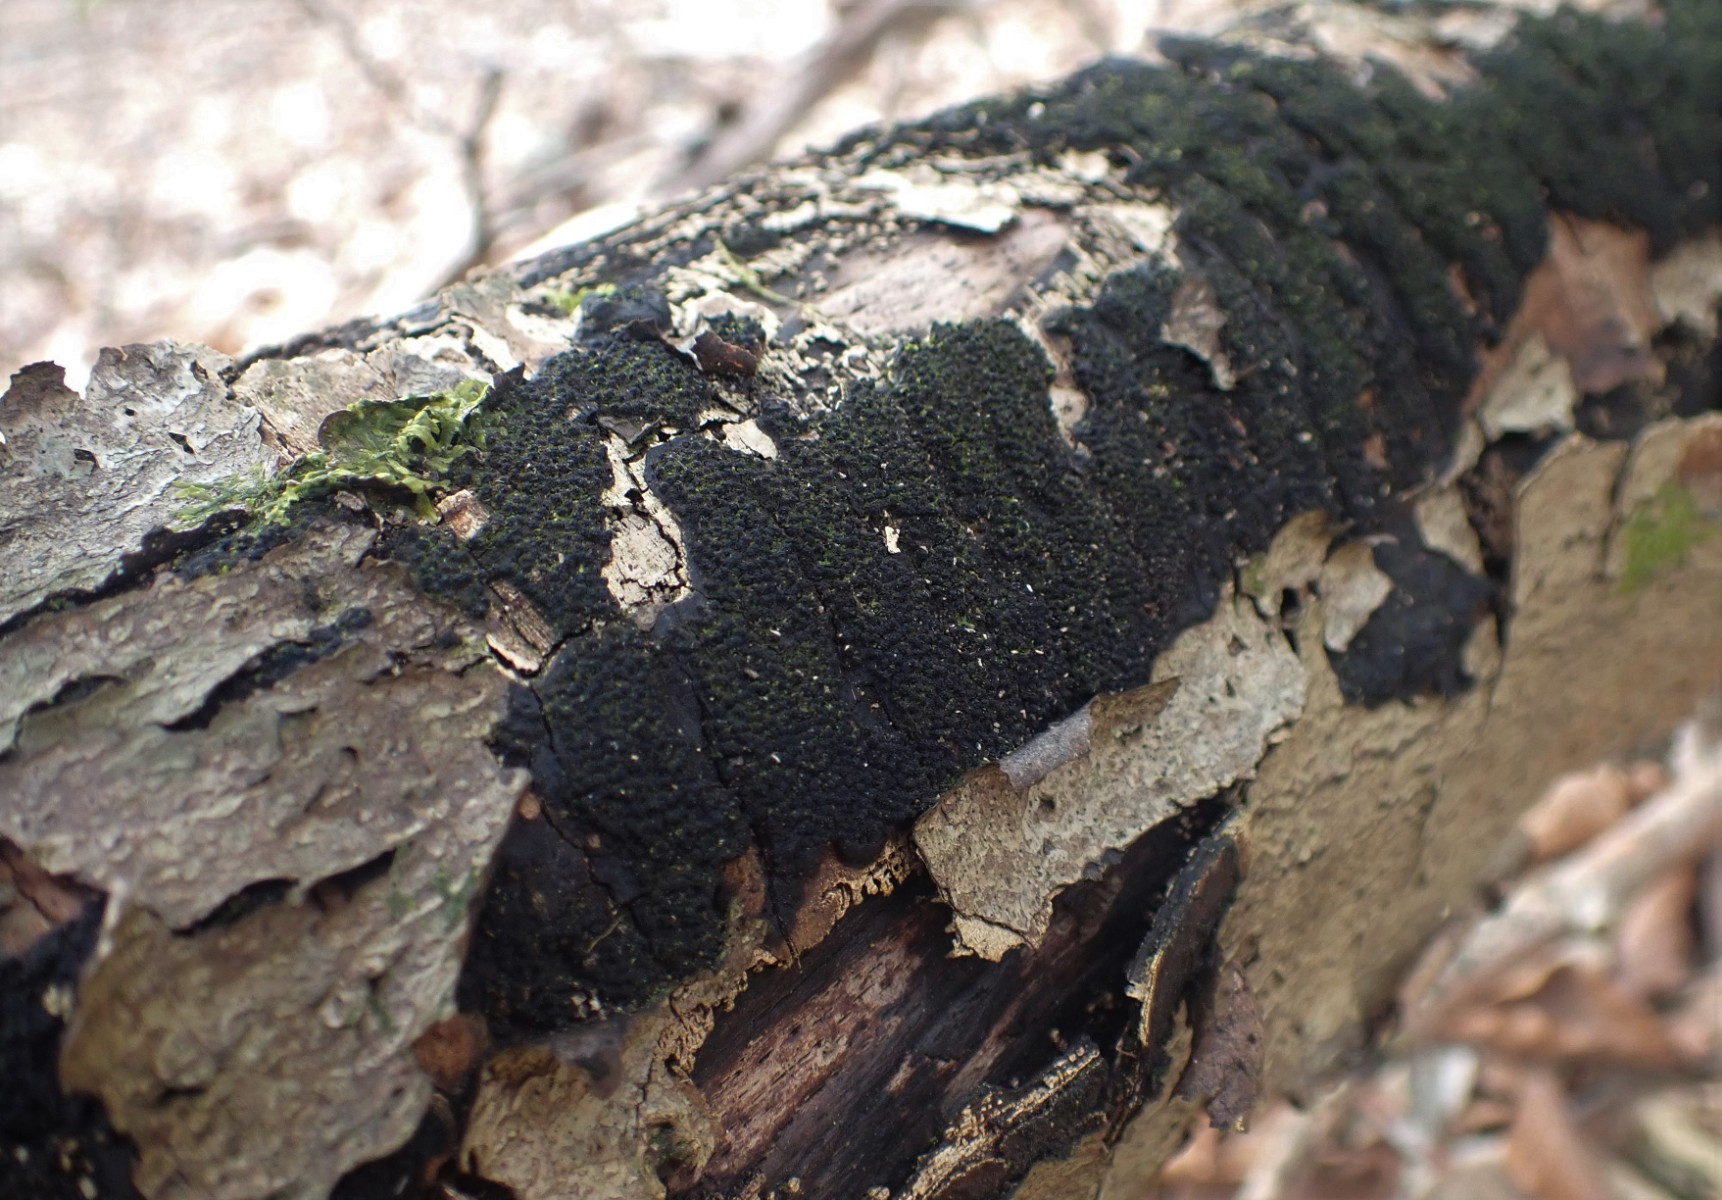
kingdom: Fungi
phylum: Ascomycota
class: Sordariomycetes
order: Xylariales
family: Diatrypaceae
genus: Eutypa
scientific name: Eutypa spinosa
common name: grov kulskorpe
